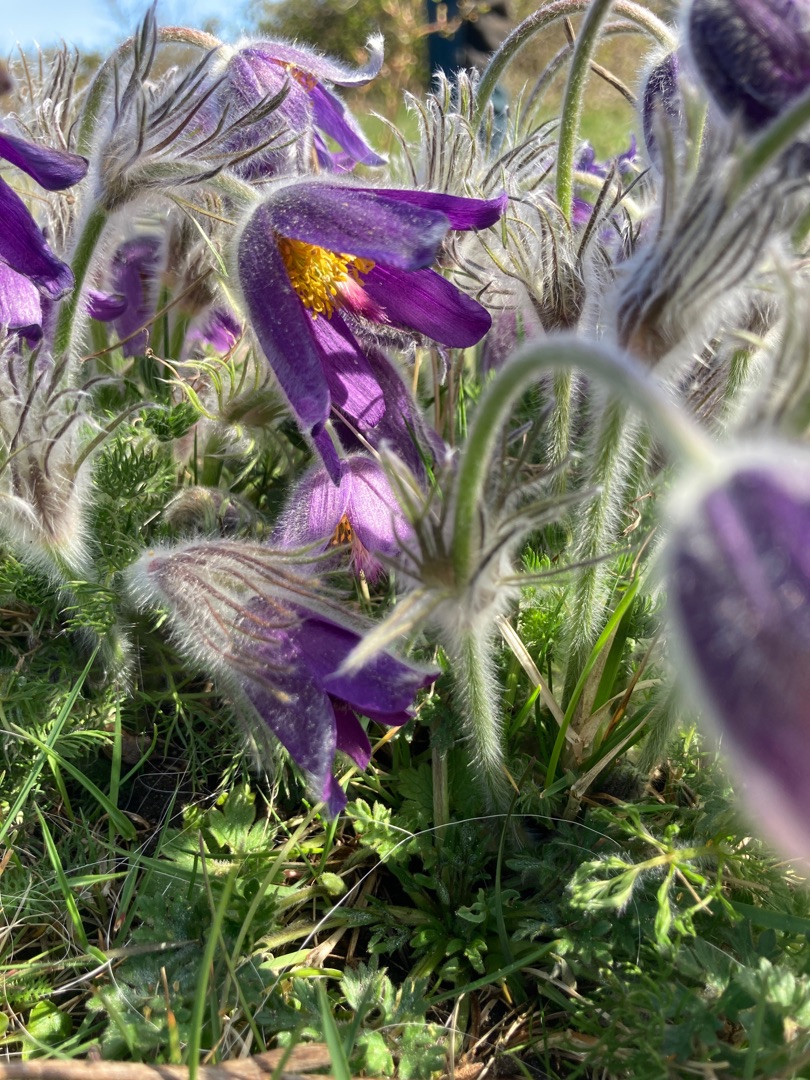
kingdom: Plantae
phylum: Tracheophyta
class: Magnoliopsida
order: Ranunculales
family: Ranunculaceae
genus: Pulsatilla
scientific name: Pulsatilla vulgaris
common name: Opret kobjælde
